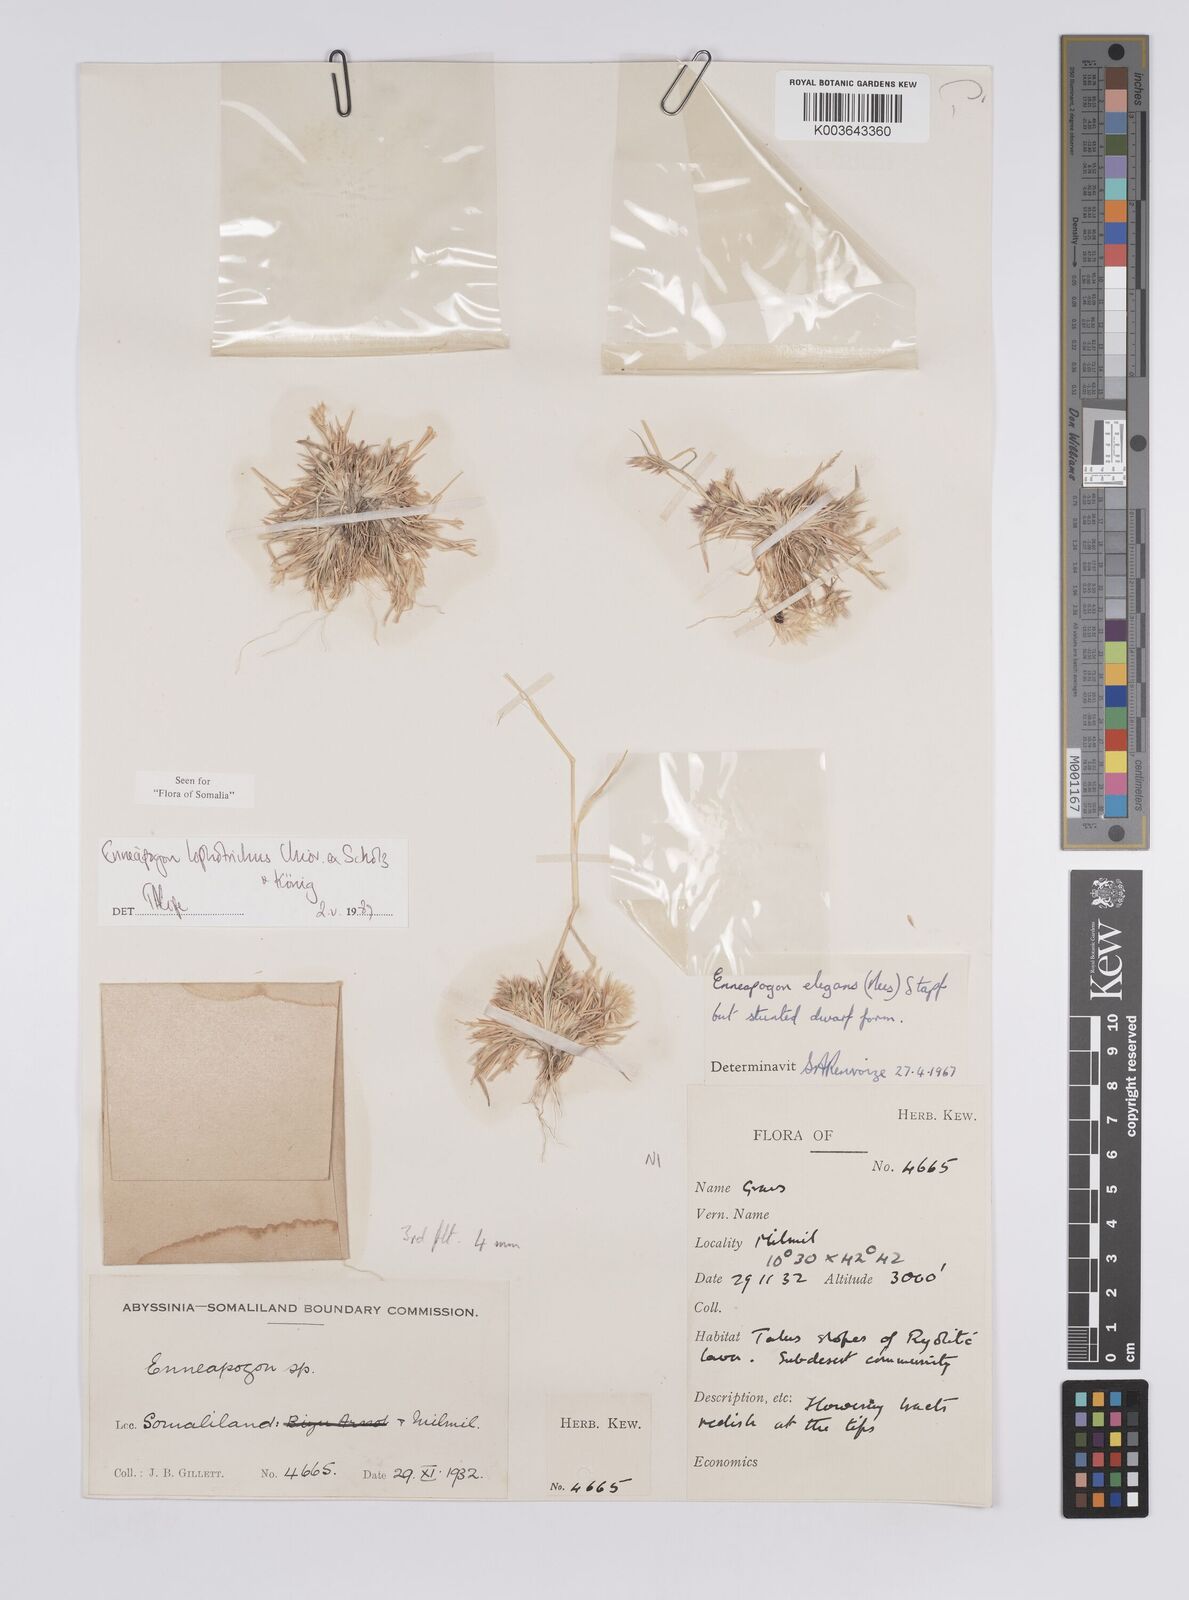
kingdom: Plantae
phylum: Tracheophyta
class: Liliopsida
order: Poales
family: Poaceae
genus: Enneapogon
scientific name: Enneapogon lophotrichus
